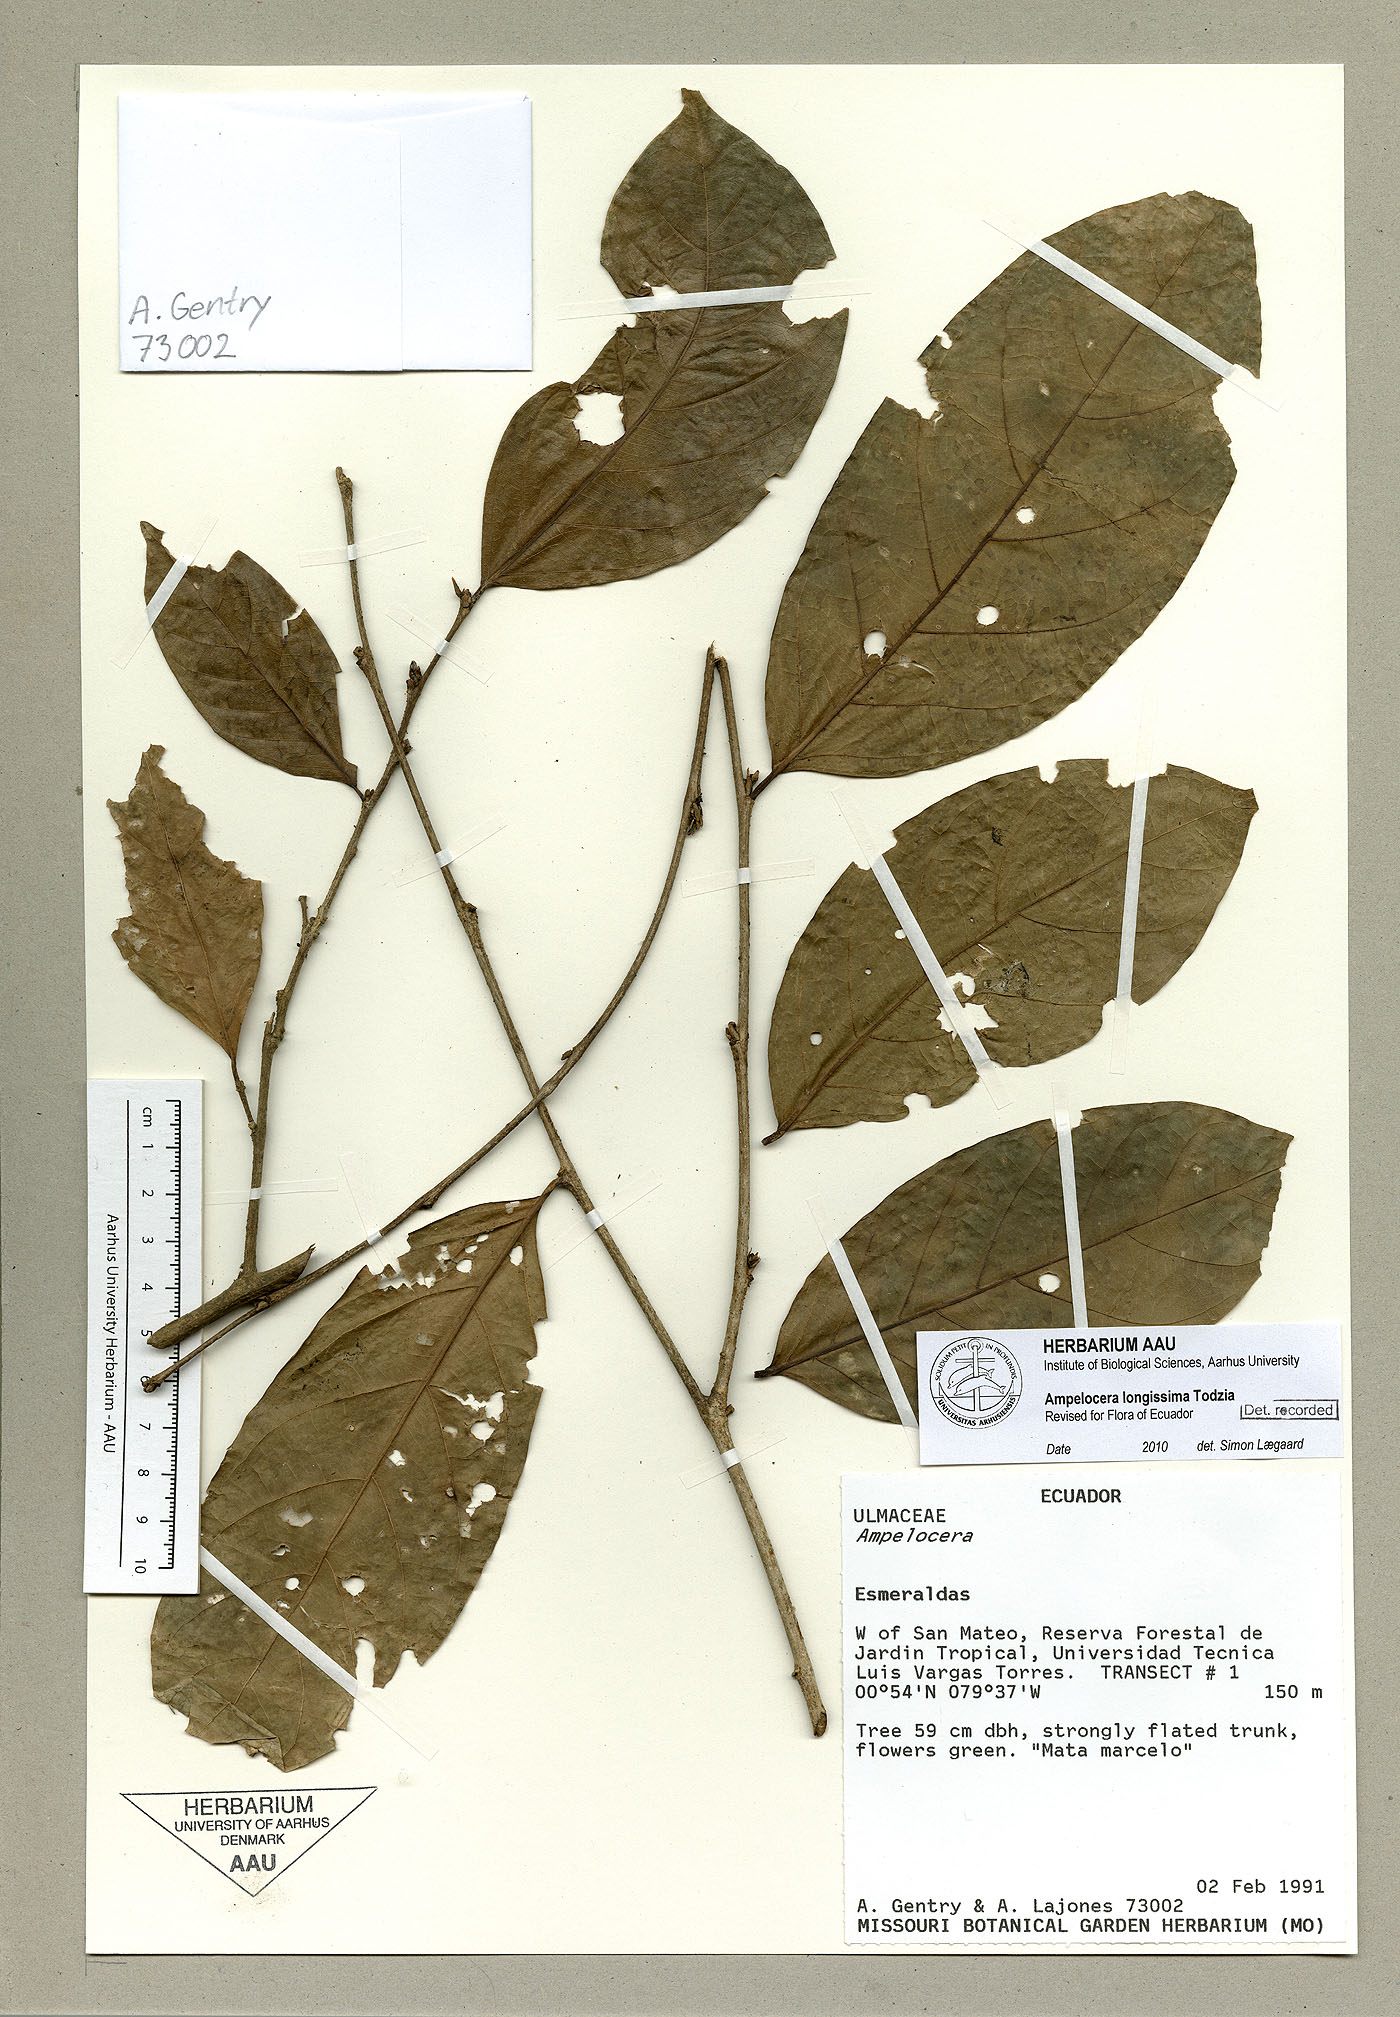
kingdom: Plantae
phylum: Tracheophyta
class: Magnoliopsida
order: Rosales
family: Cannabaceae
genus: Ampelocera
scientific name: Ampelocera longissima
